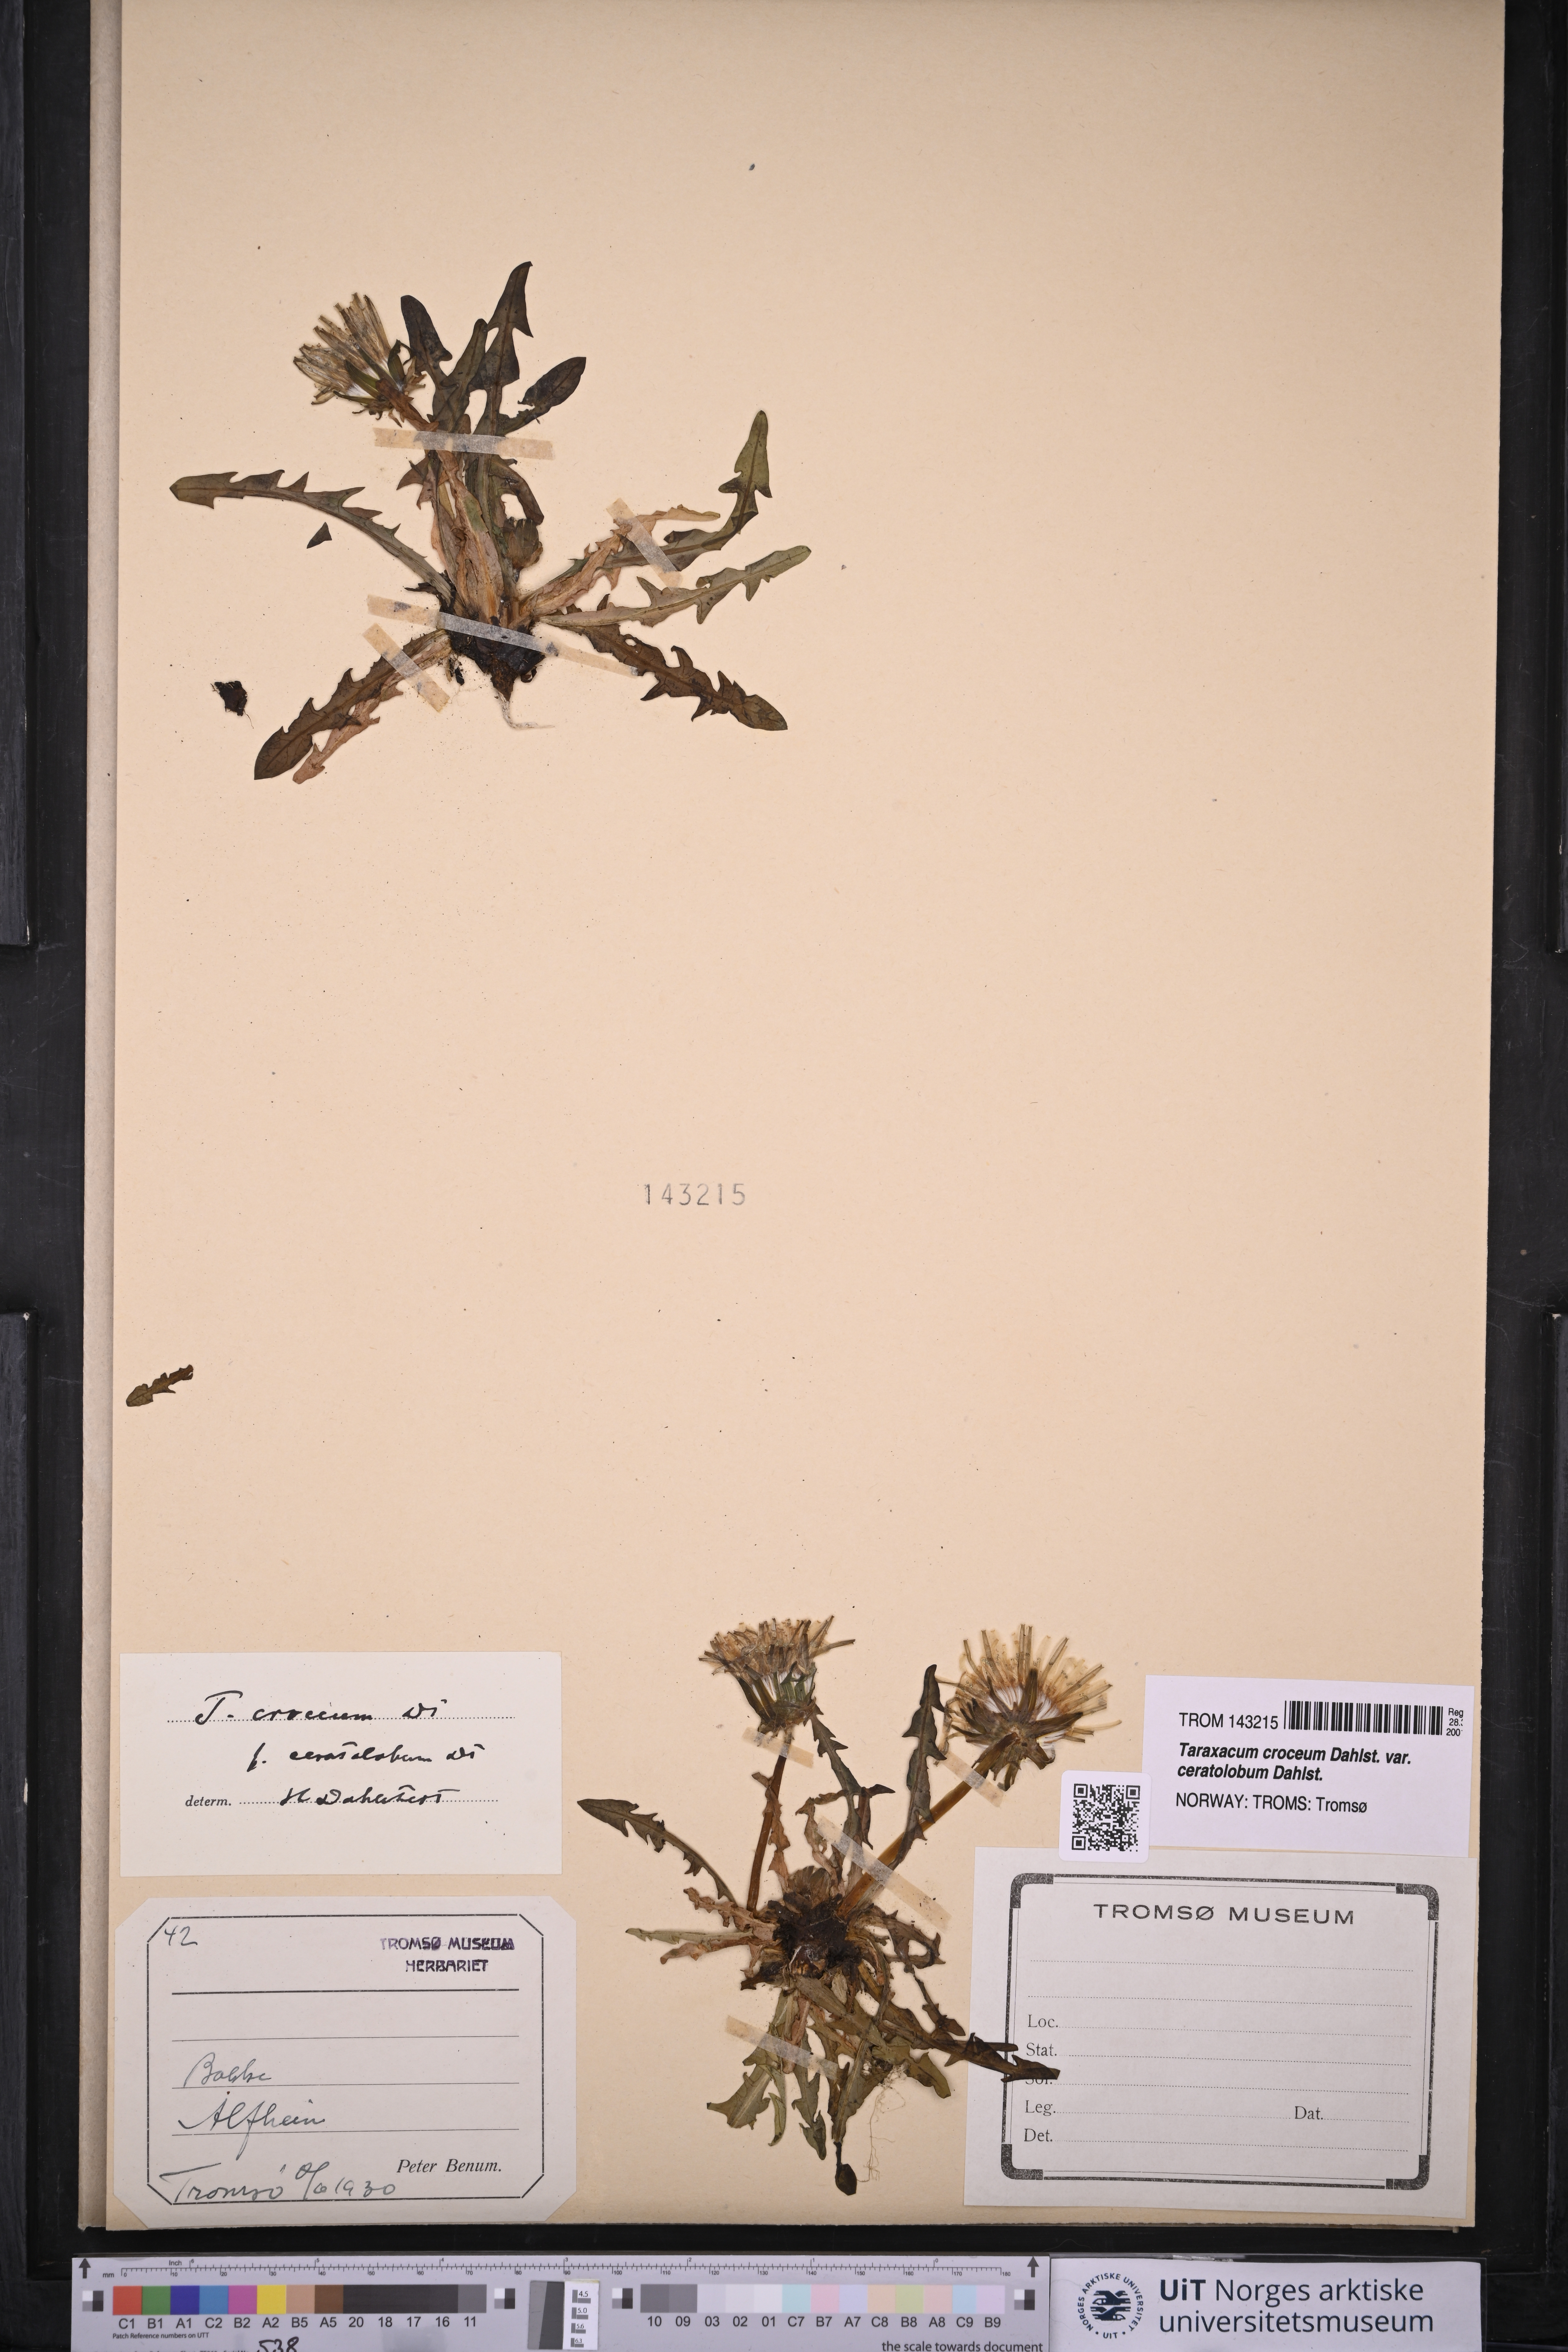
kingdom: Plantae
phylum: Tracheophyta
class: Magnoliopsida
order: Asterales
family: Asteraceae
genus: Taraxacum
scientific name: Taraxacum croceum
